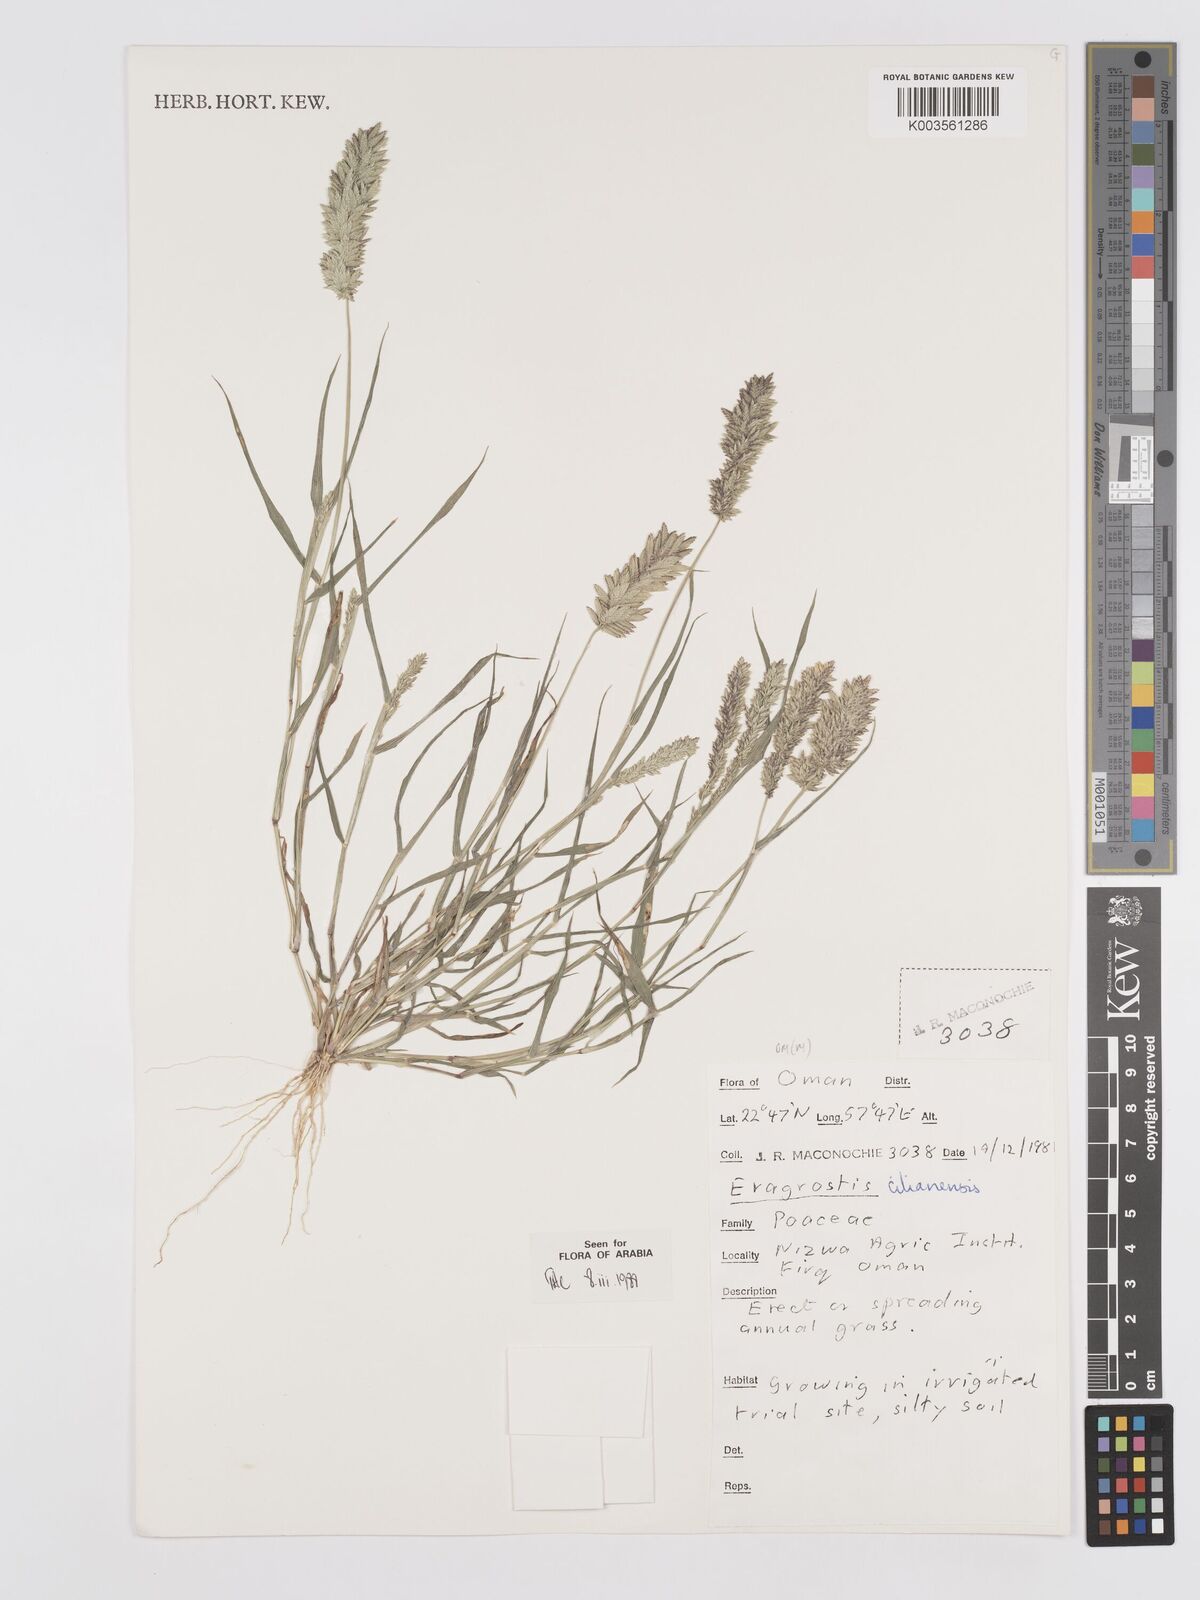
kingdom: Plantae
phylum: Tracheophyta
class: Liliopsida
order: Poales
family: Poaceae
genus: Eragrostis
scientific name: Eragrostis cilianensis
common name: Stinkgrass
